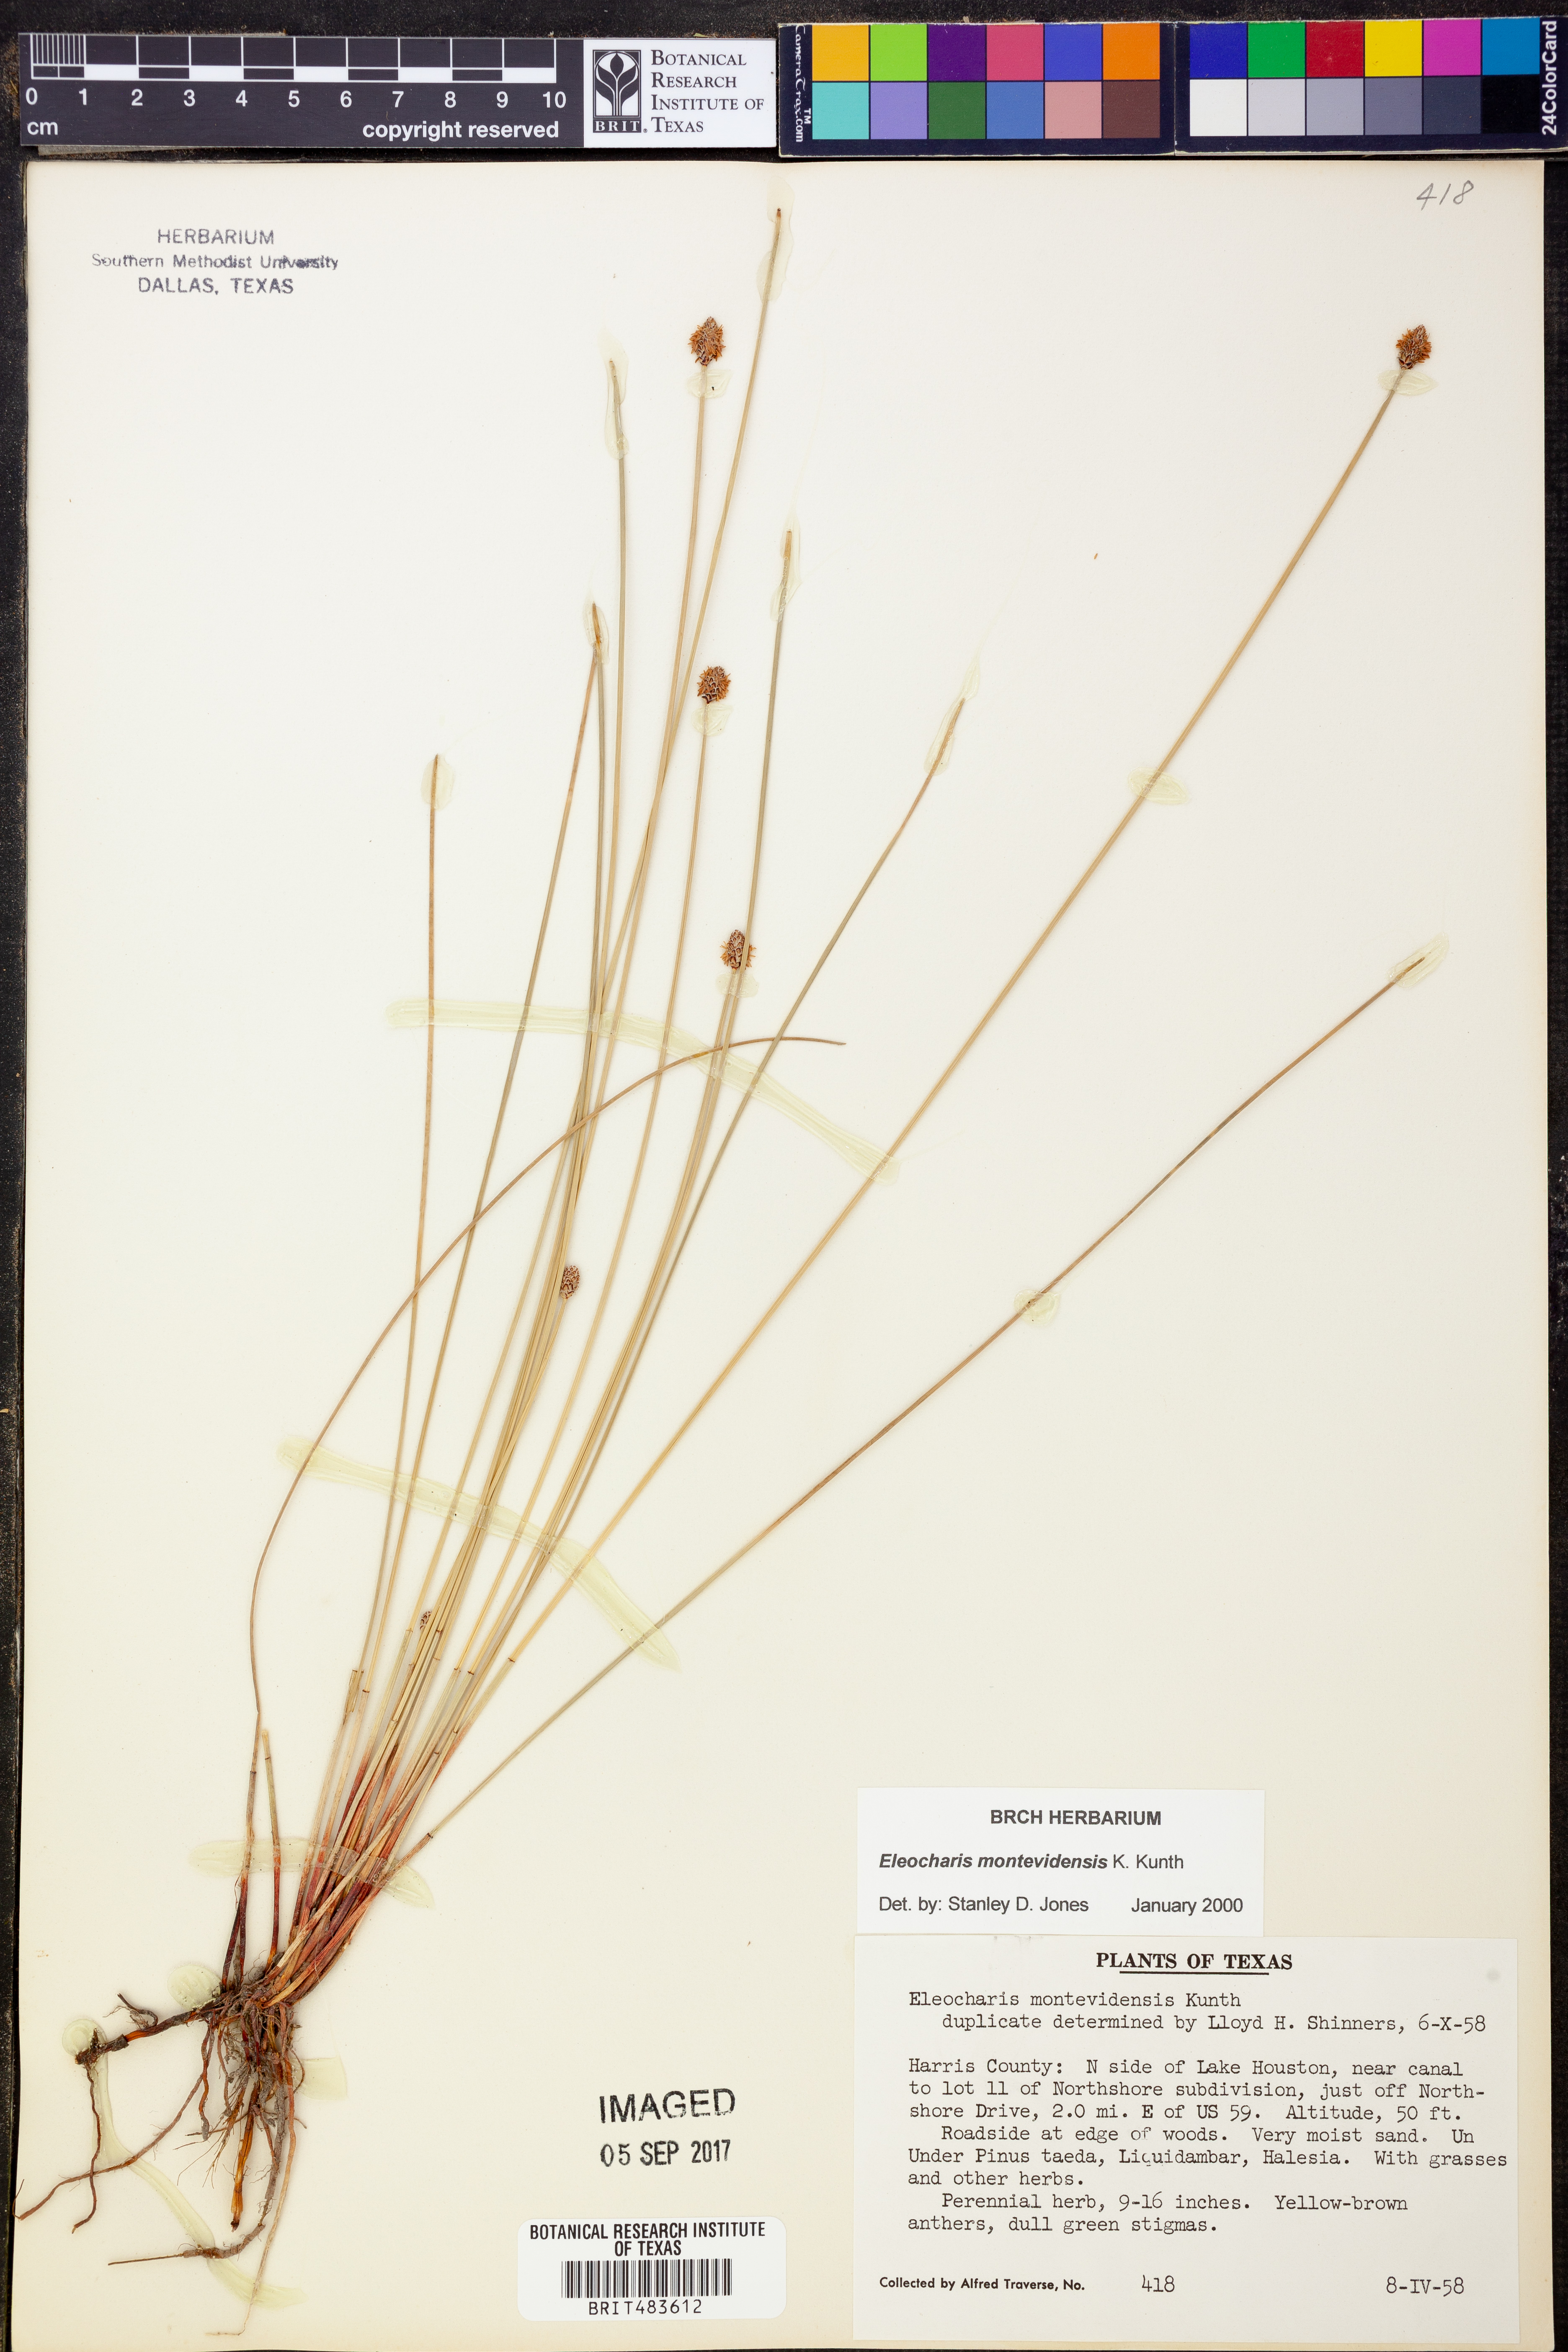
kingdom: Plantae
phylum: Tracheophyta
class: Liliopsida
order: Poales
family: Cyperaceae
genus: Eleocharis
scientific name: Eleocharis montevidensis
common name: Sand spike-rush
